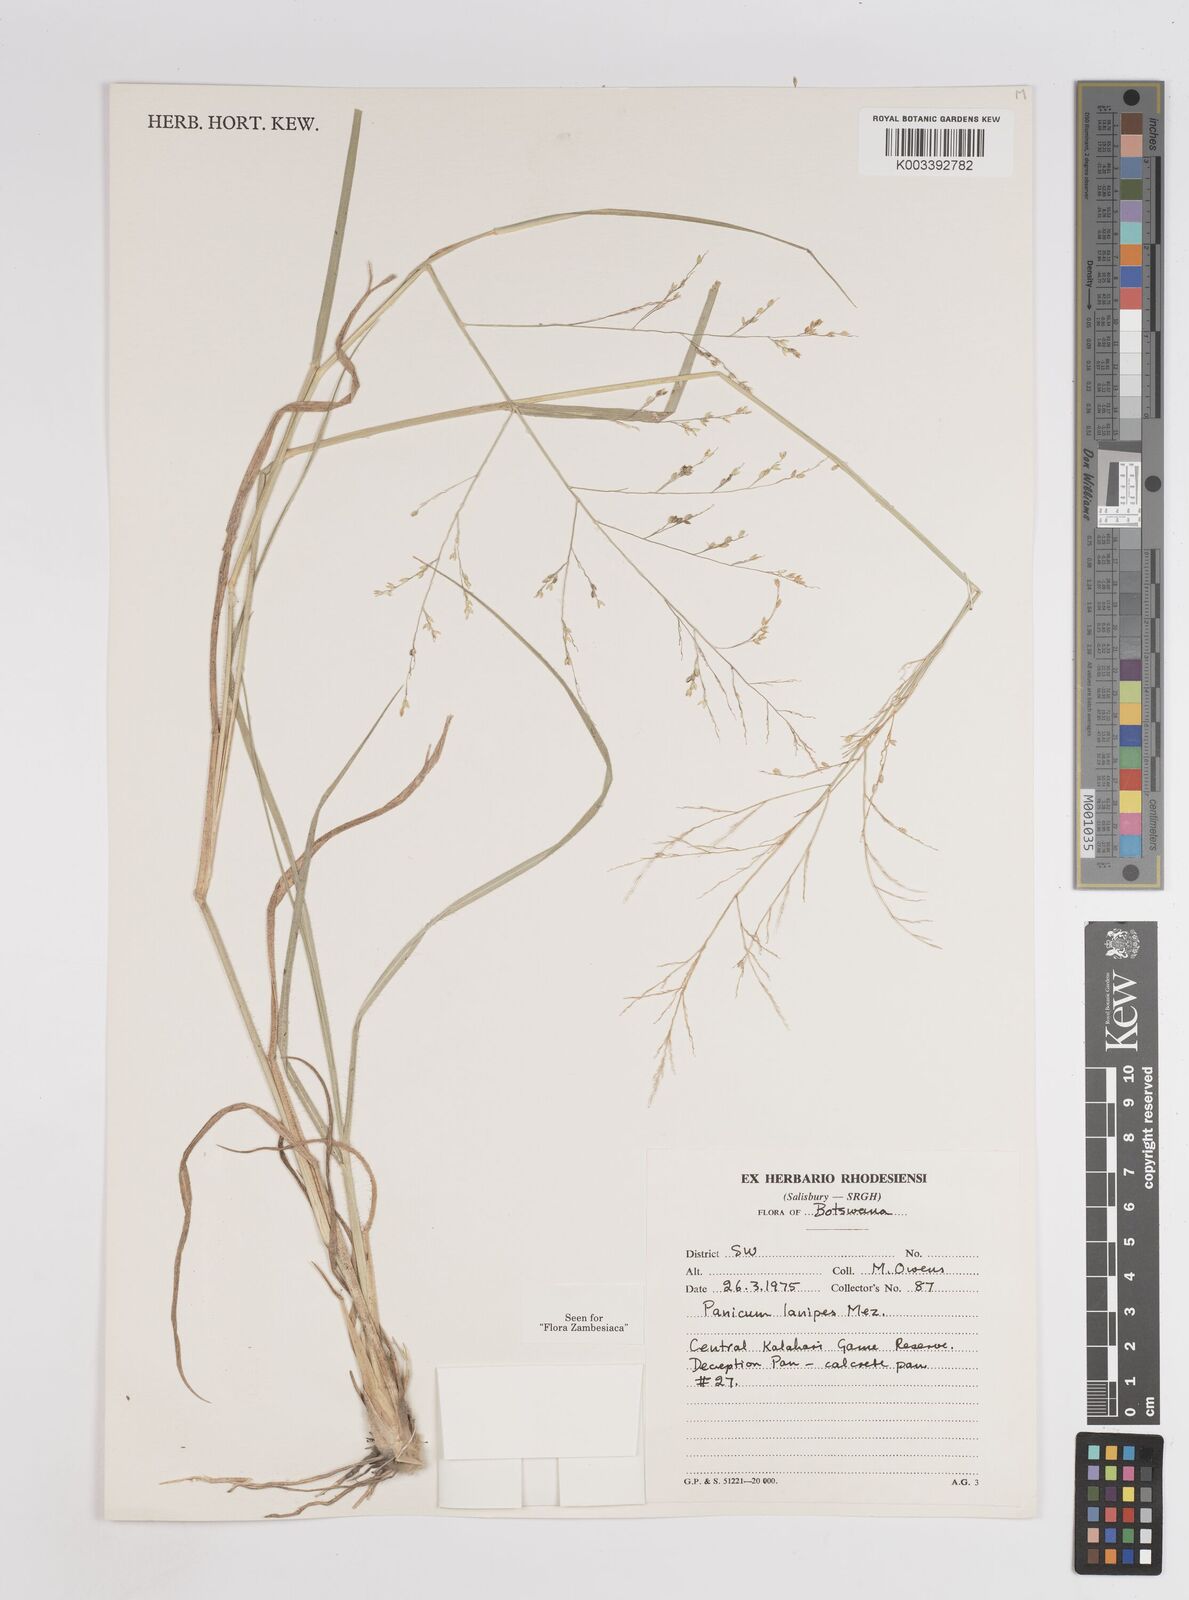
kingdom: Plantae
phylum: Tracheophyta
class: Liliopsida
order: Poales
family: Poaceae
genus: Panicum
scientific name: Panicum lanipes
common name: Wolvoet panicum
